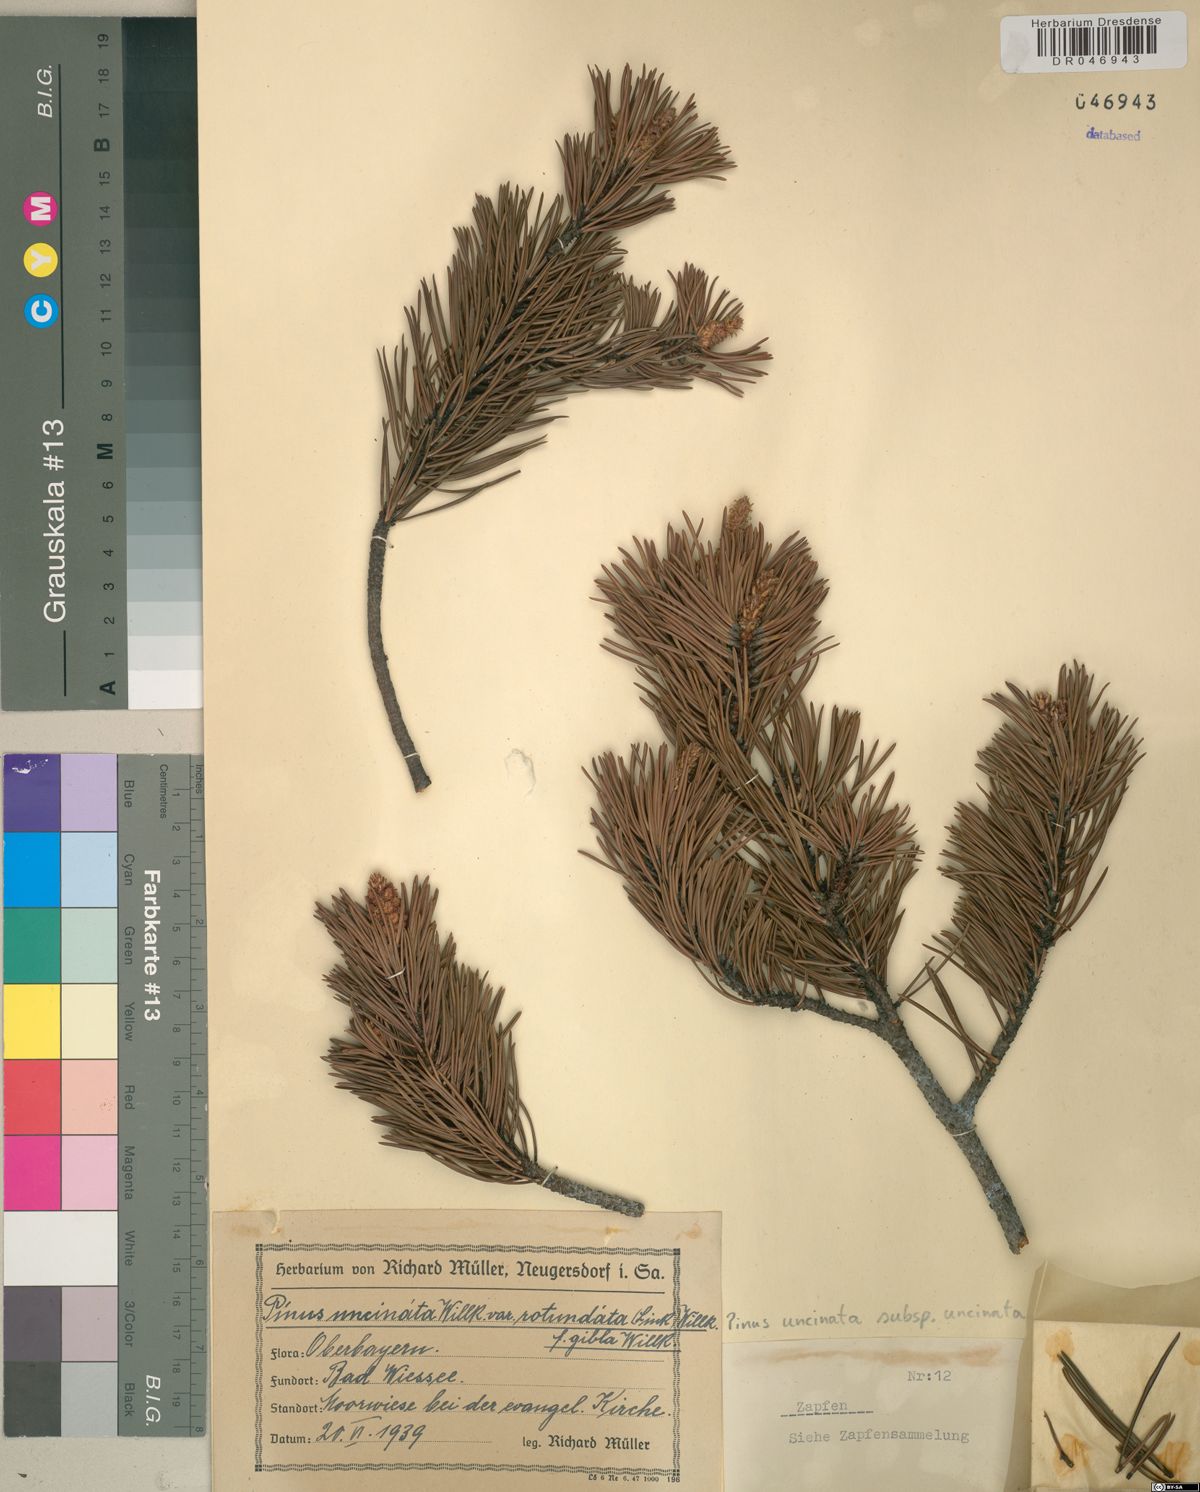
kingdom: Plantae
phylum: Tracheophyta
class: Pinopsida
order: Pinales
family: Pinaceae
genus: Pinus
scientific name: Pinus uncinata
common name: Mountain pine
